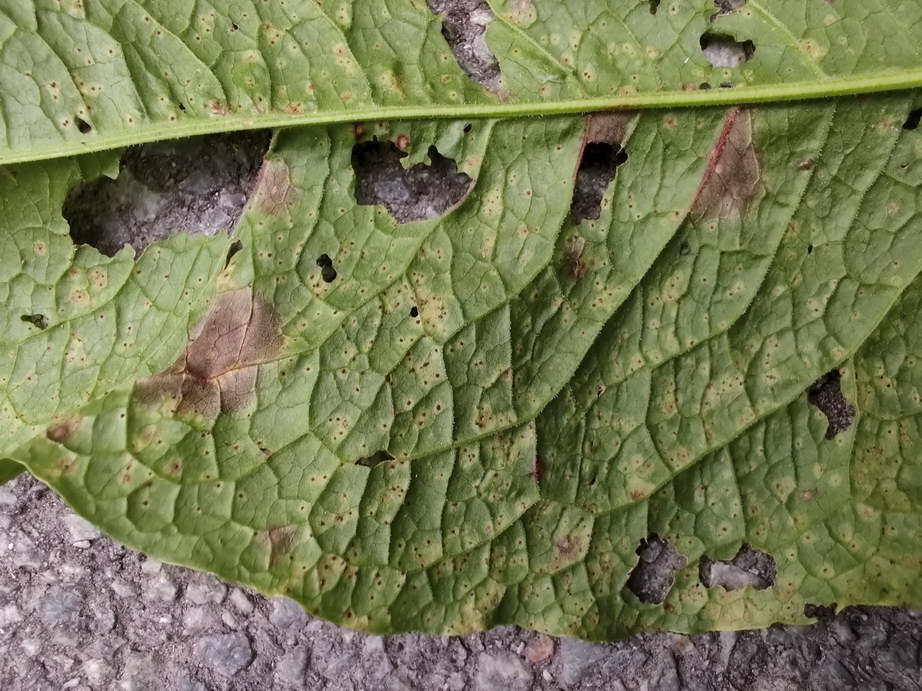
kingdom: Fungi
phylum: Basidiomycota
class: Pucciniomycetes
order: Pucciniales
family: Pucciniaceae
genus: Uromyces
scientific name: Uromyces rumicis
